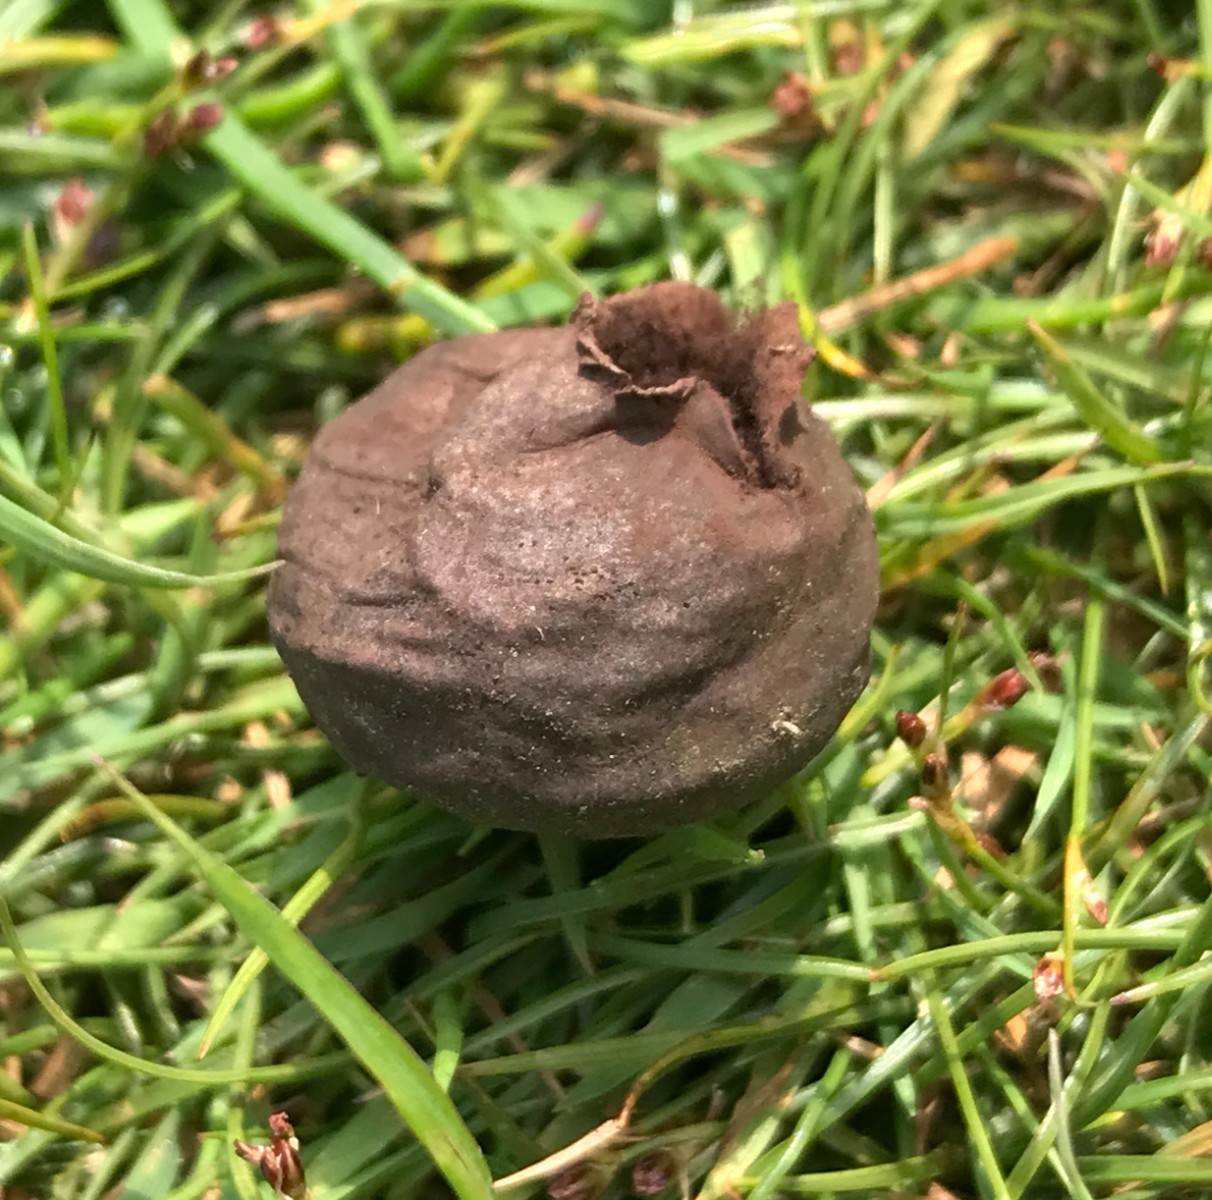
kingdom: Fungi
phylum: Basidiomycota
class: Agaricomycetes
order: Agaricales
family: Lycoperdaceae
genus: Bovista
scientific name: Bovista nigrescens
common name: sortagtig bovist
